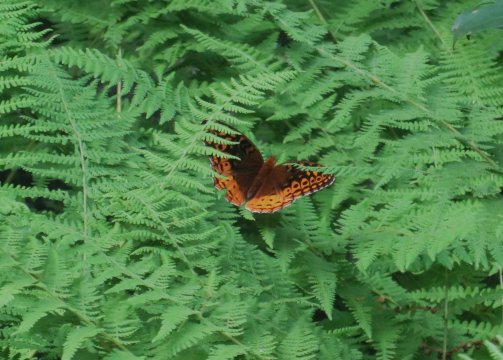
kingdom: Animalia
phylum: Arthropoda
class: Insecta
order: Lepidoptera
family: Nymphalidae
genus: Speyeria
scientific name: Speyeria cybele
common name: Great Spangled Fritillary
